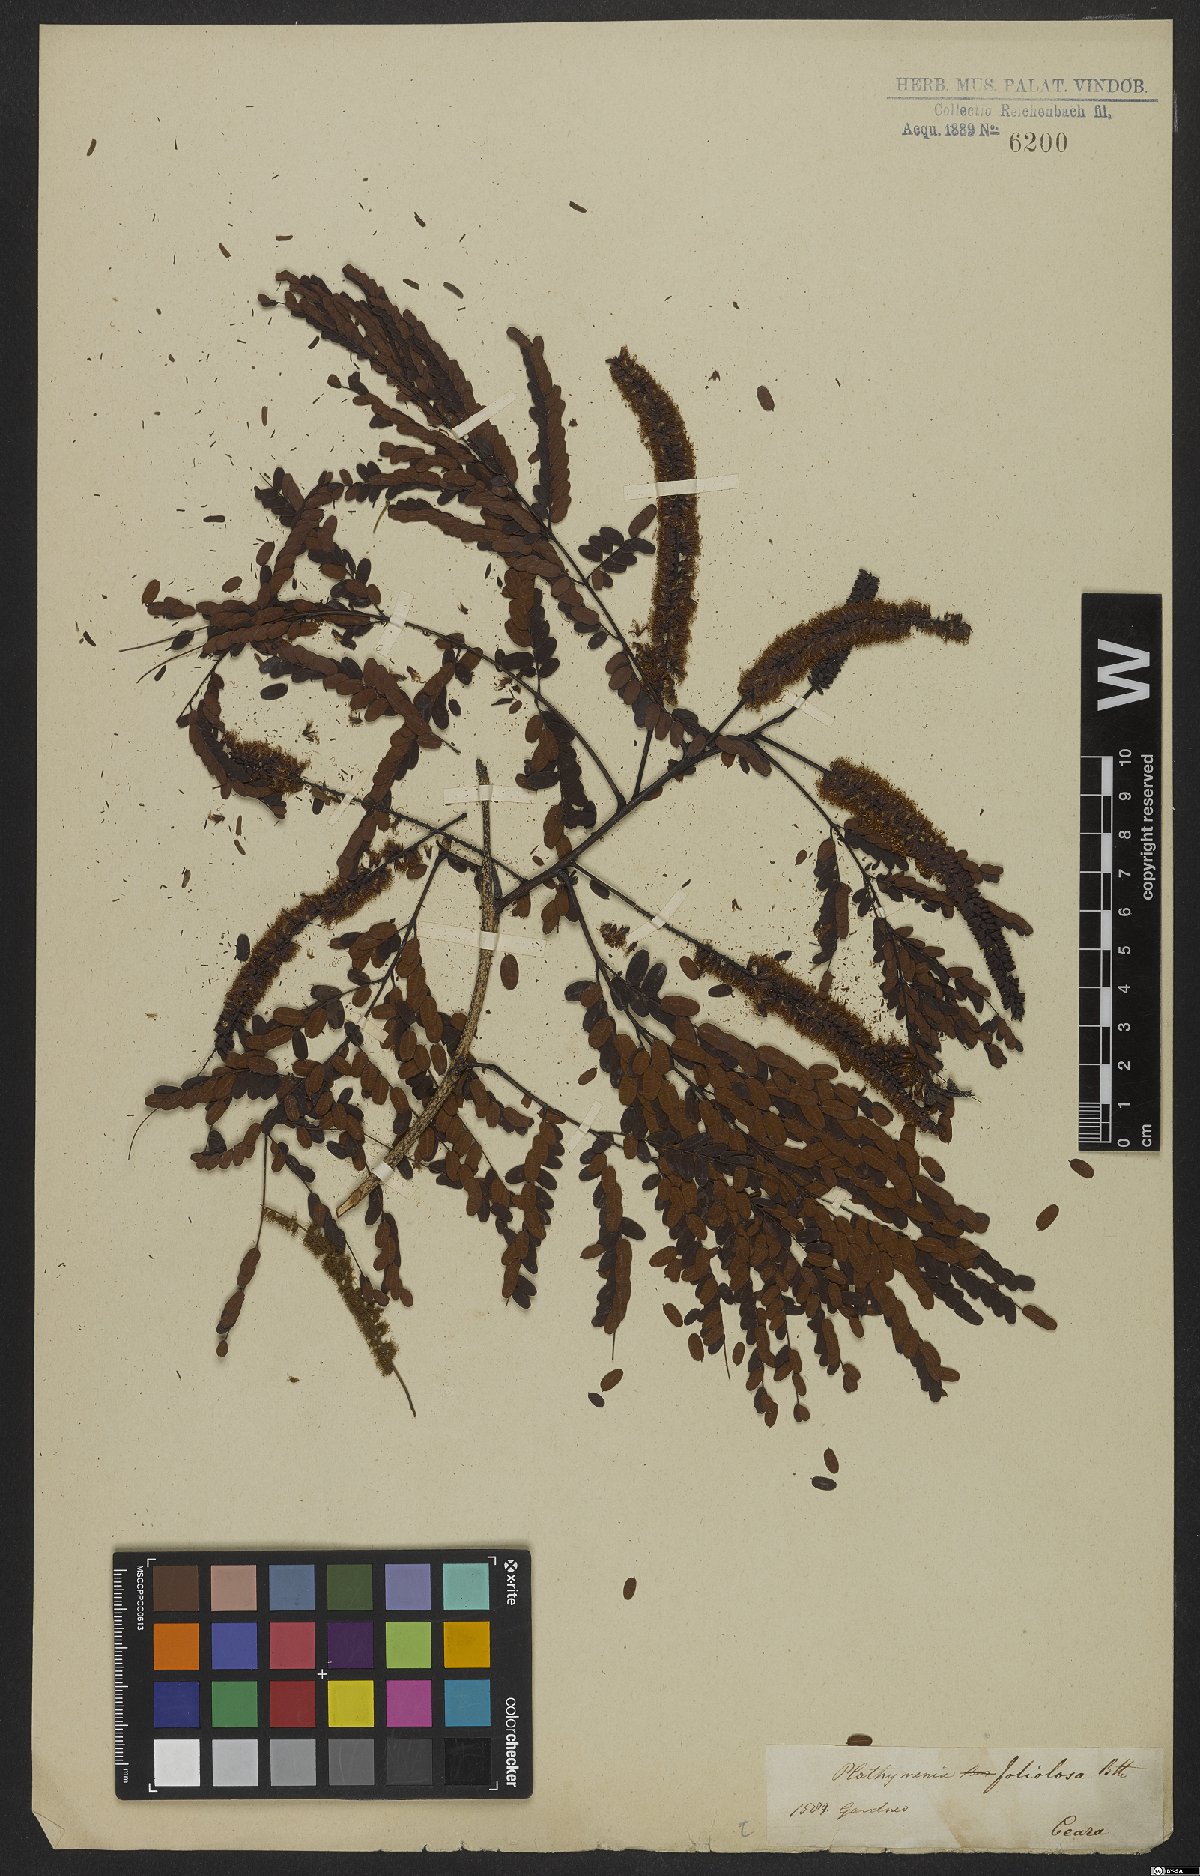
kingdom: Plantae
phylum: Tracheophyta
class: Magnoliopsida
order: Fabales
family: Fabaceae
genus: Stryphnodendron
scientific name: Stryphnodendron pulcherrimum
